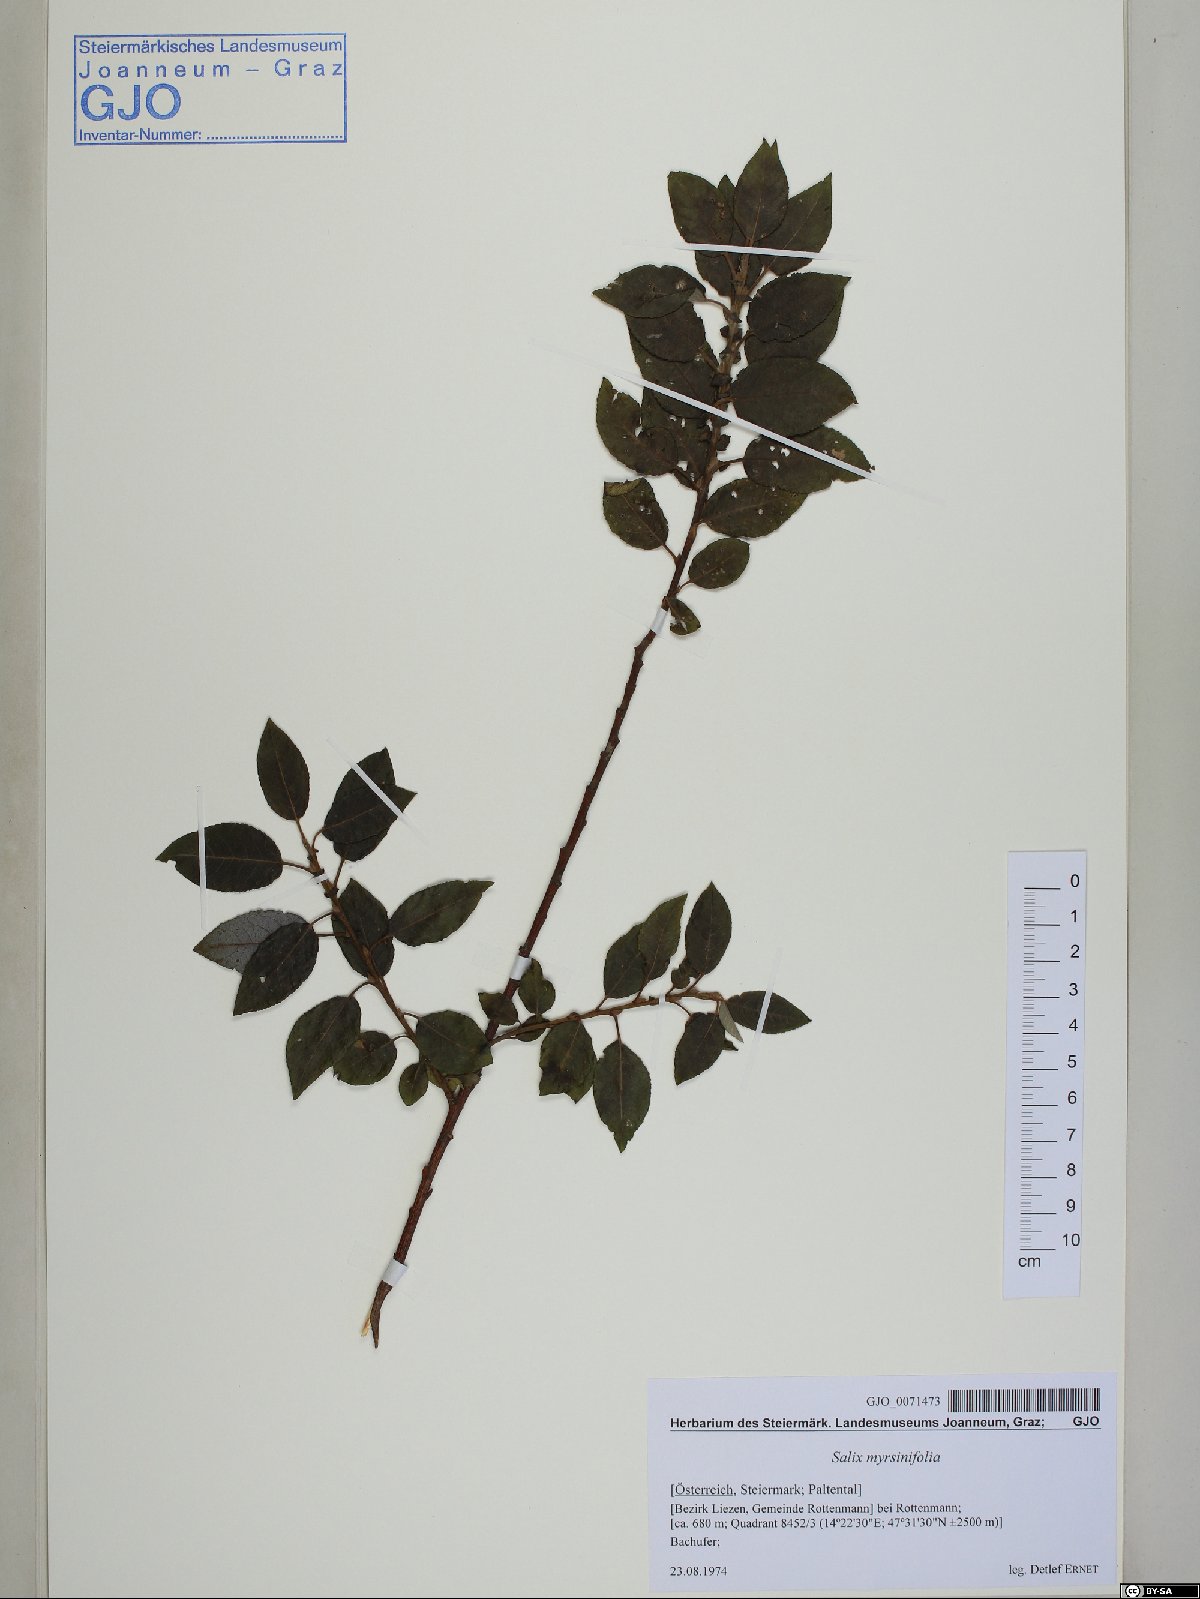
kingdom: Plantae
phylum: Tracheophyta
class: Magnoliopsida
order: Malpighiales
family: Salicaceae
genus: Salix
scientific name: Salix myrsinifolia
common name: Dark-leaved willow
